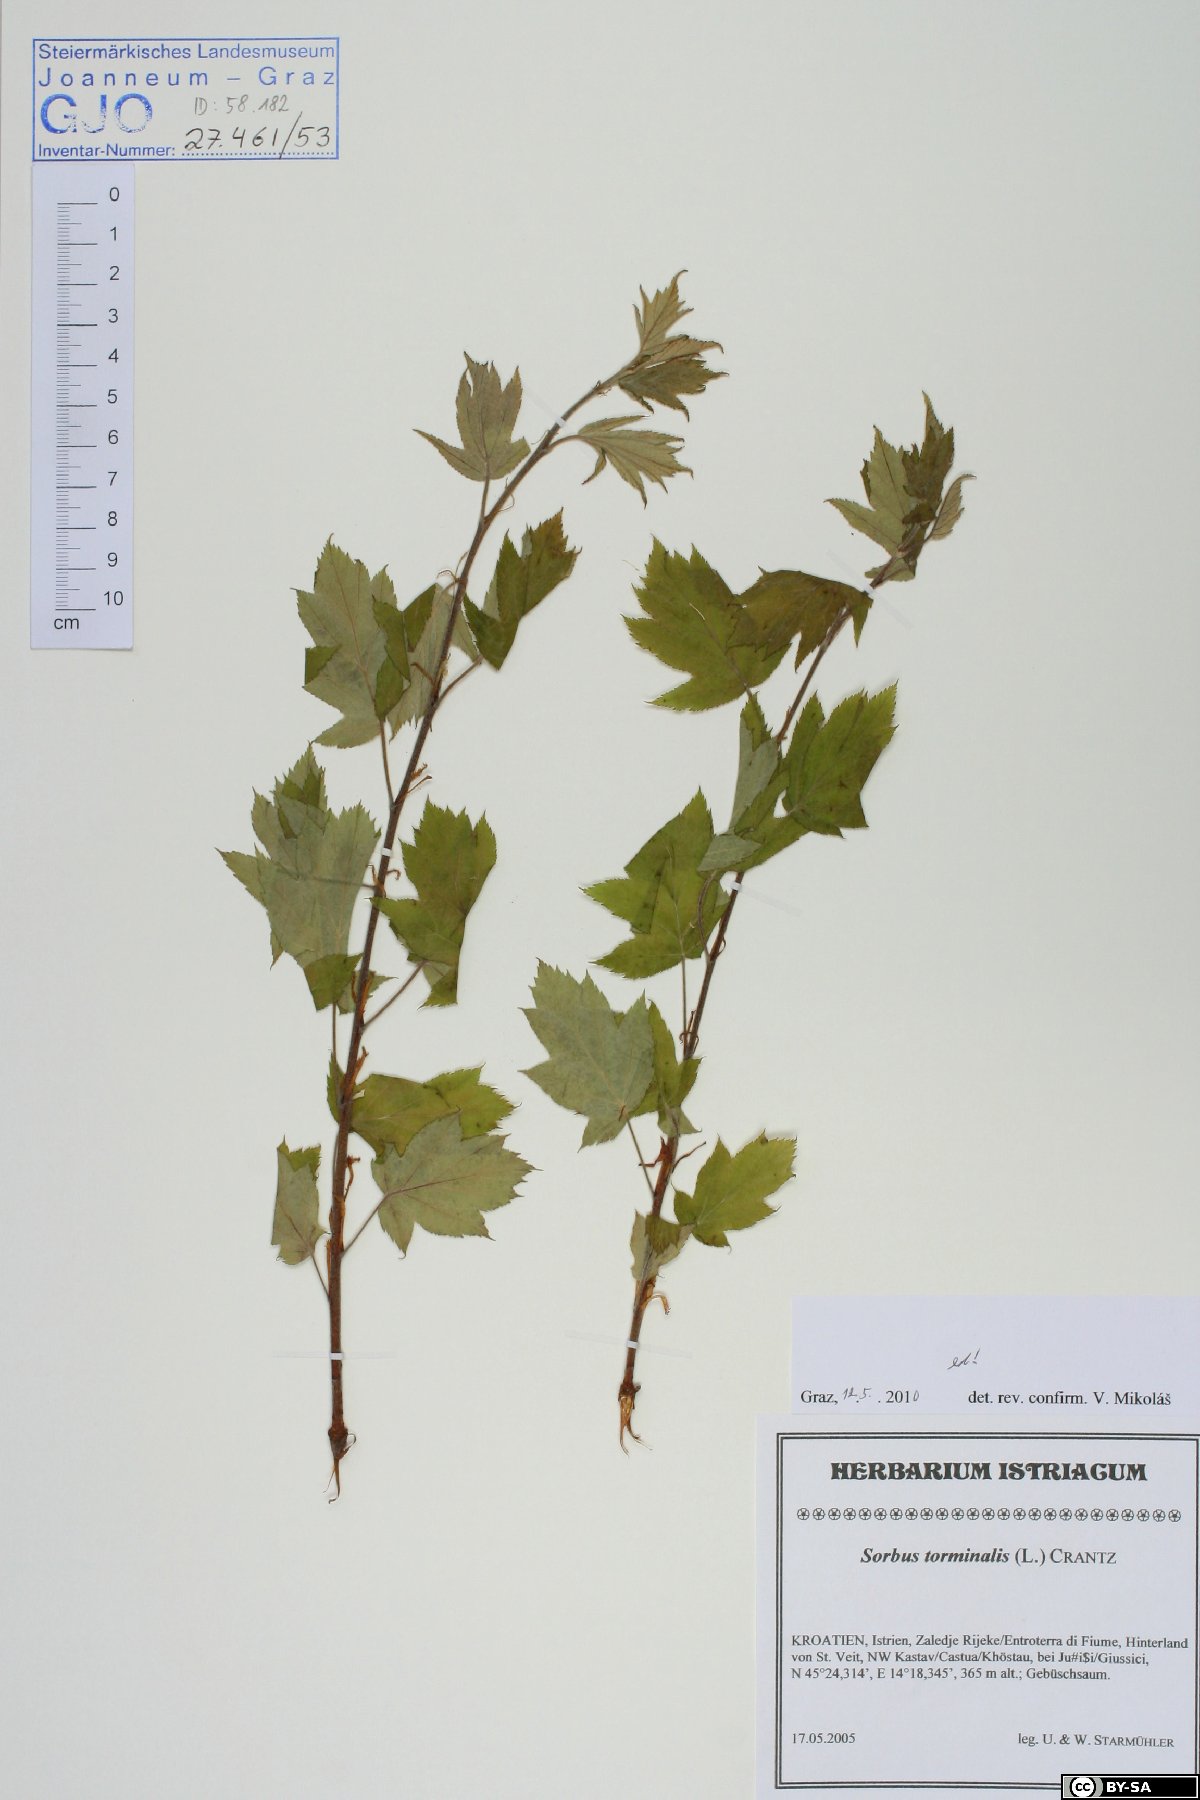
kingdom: Plantae
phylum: Tracheophyta
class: Magnoliopsida
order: Rosales
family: Rosaceae
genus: Torminalis
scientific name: Torminalis glaberrima
